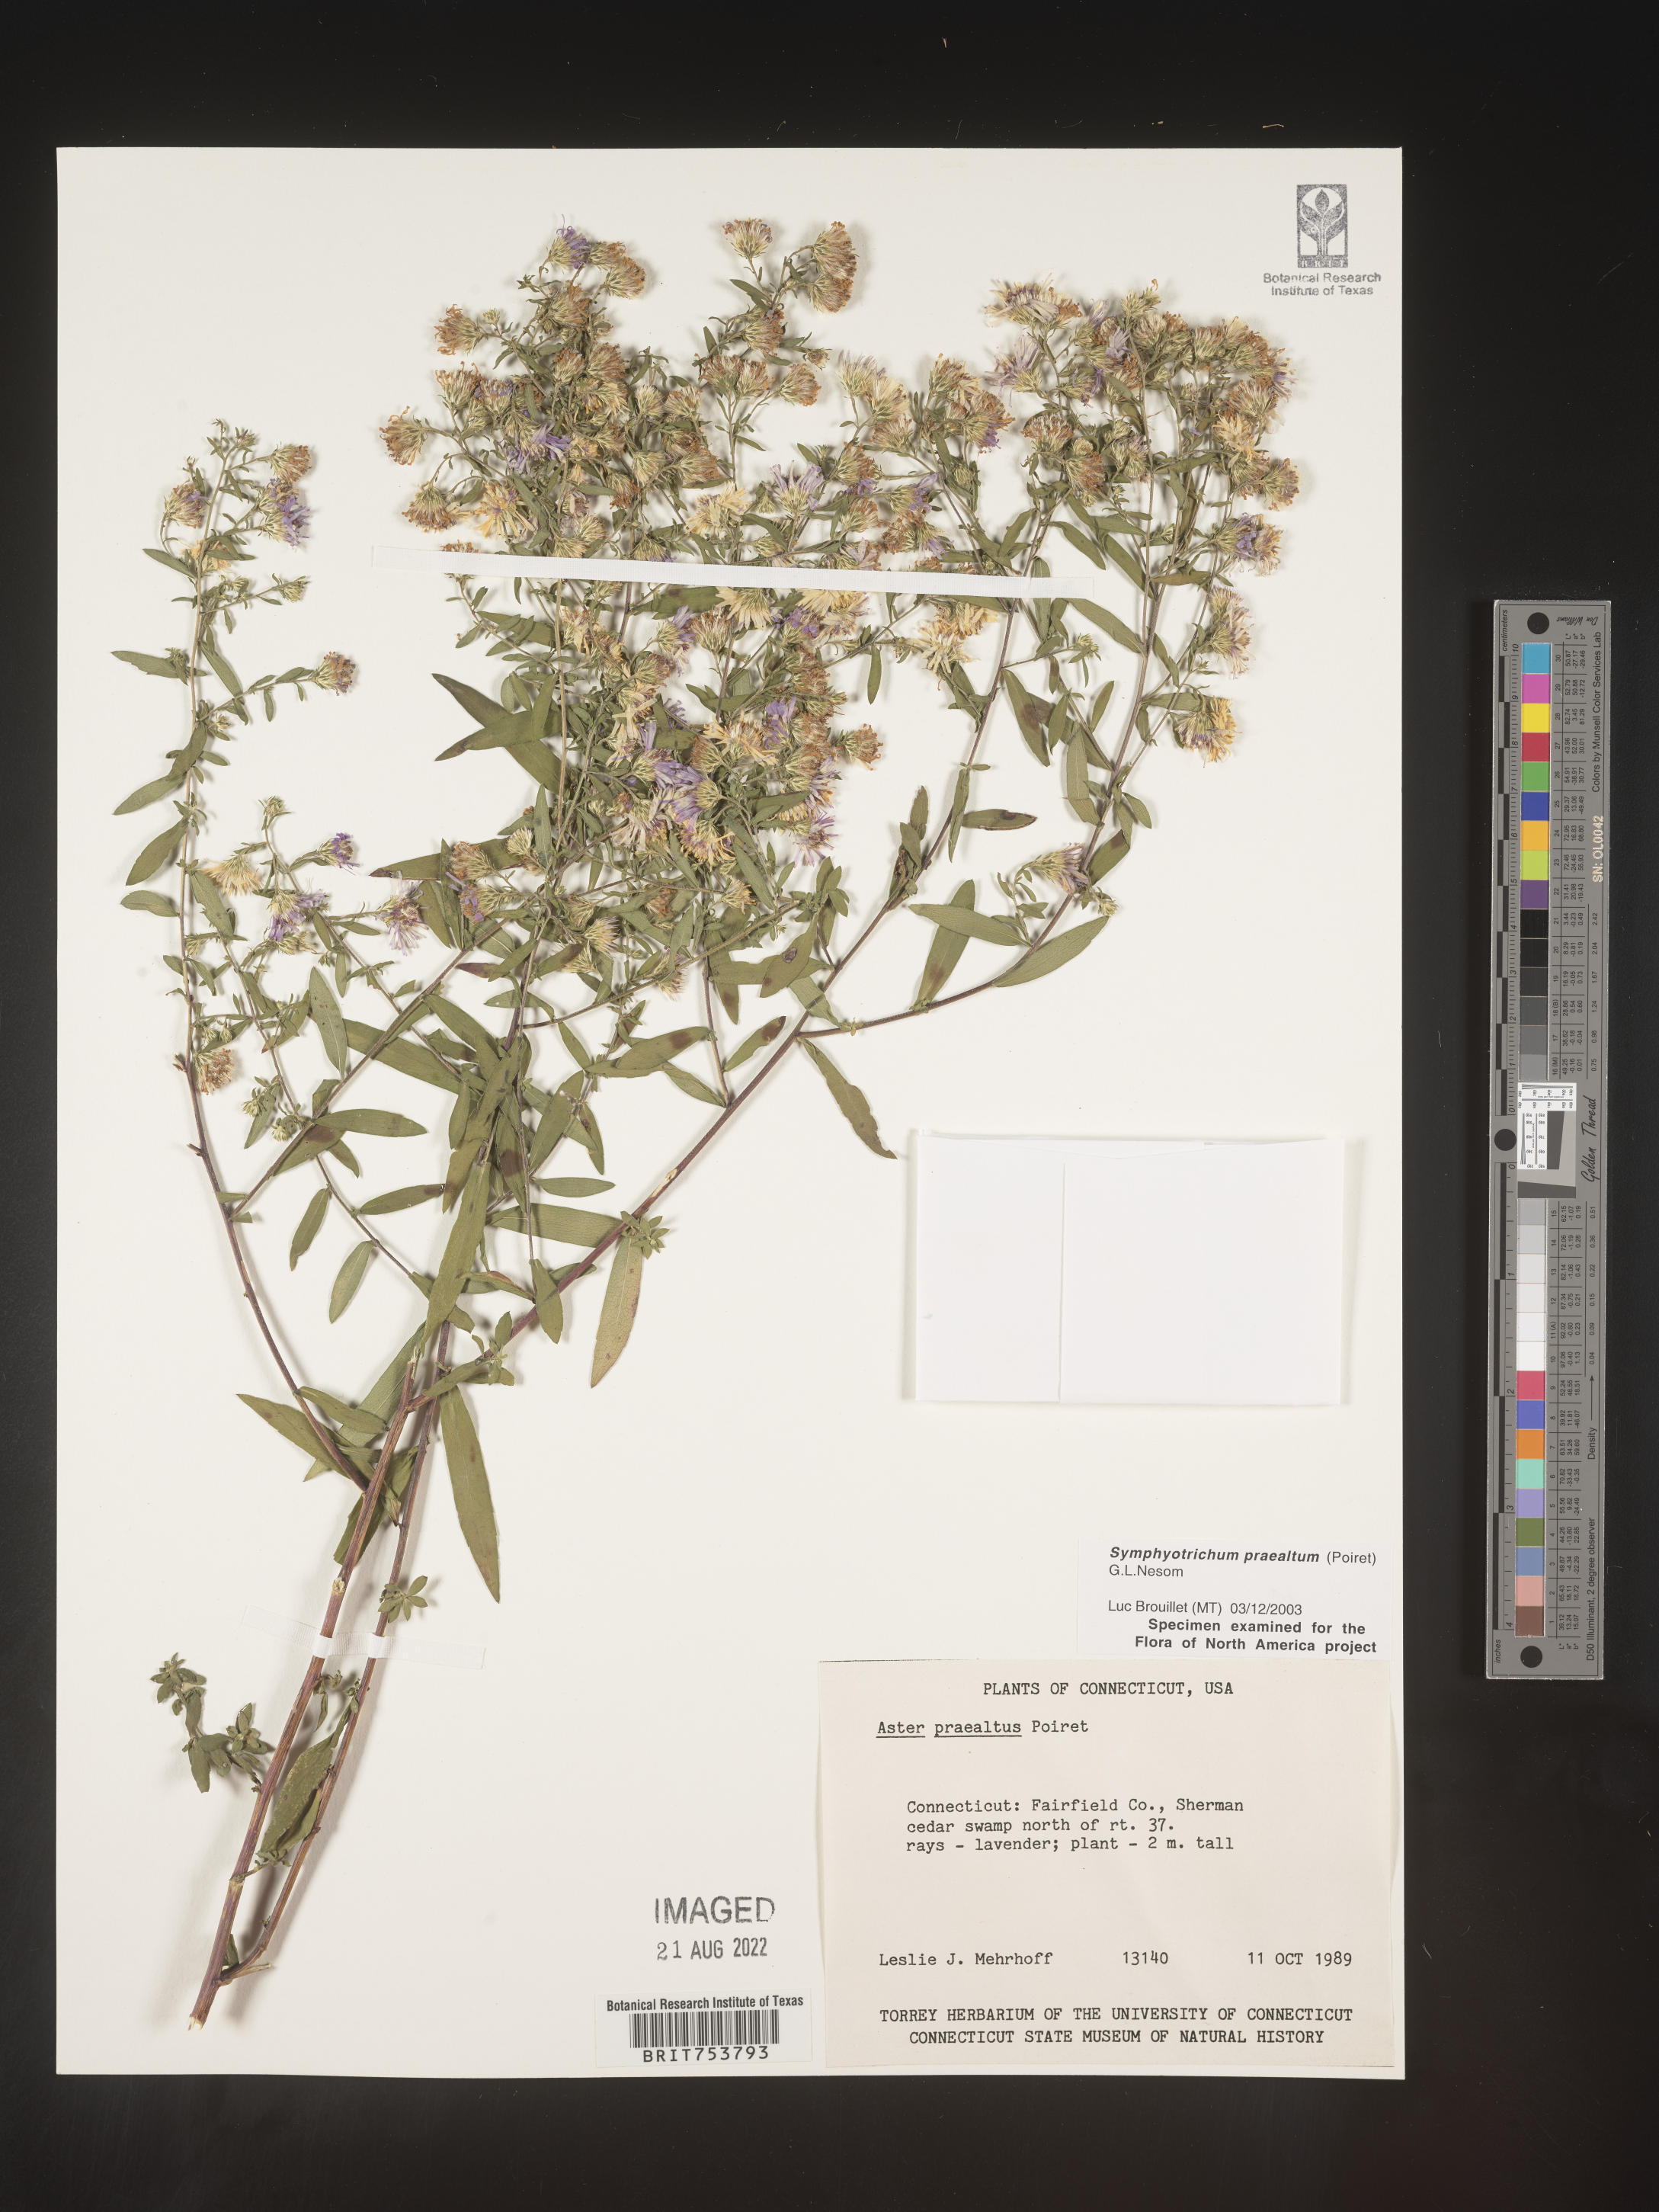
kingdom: Plantae
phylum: Tracheophyta
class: Magnoliopsida
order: Asterales
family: Asteraceae
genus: Symphyotrichum
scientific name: Symphyotrichum praealtum
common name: Willow aster
